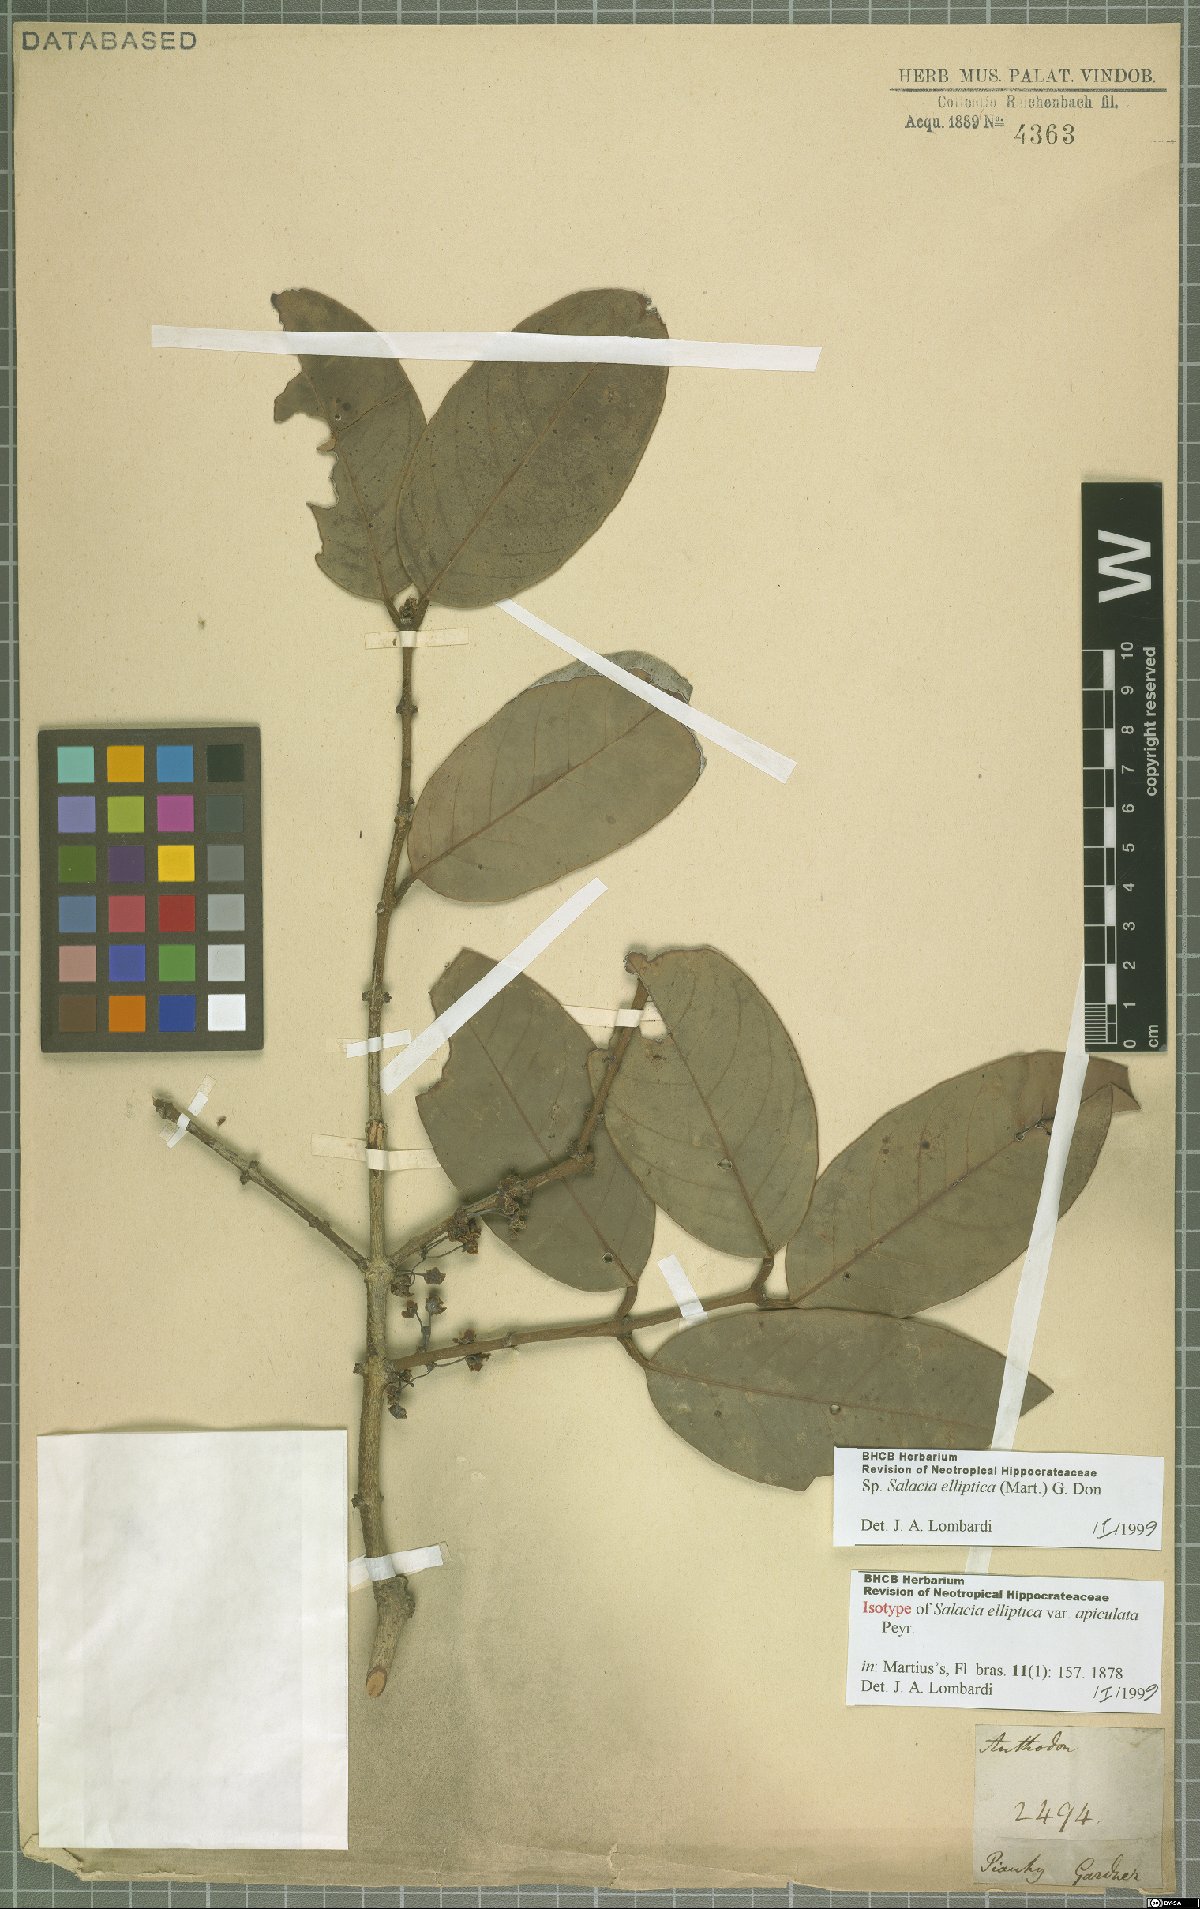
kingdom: Plantae
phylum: Tracheophyta
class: Magnoliopsida
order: Celastrales
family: Celastraceae
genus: Salacia
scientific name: Salacia elliptica
